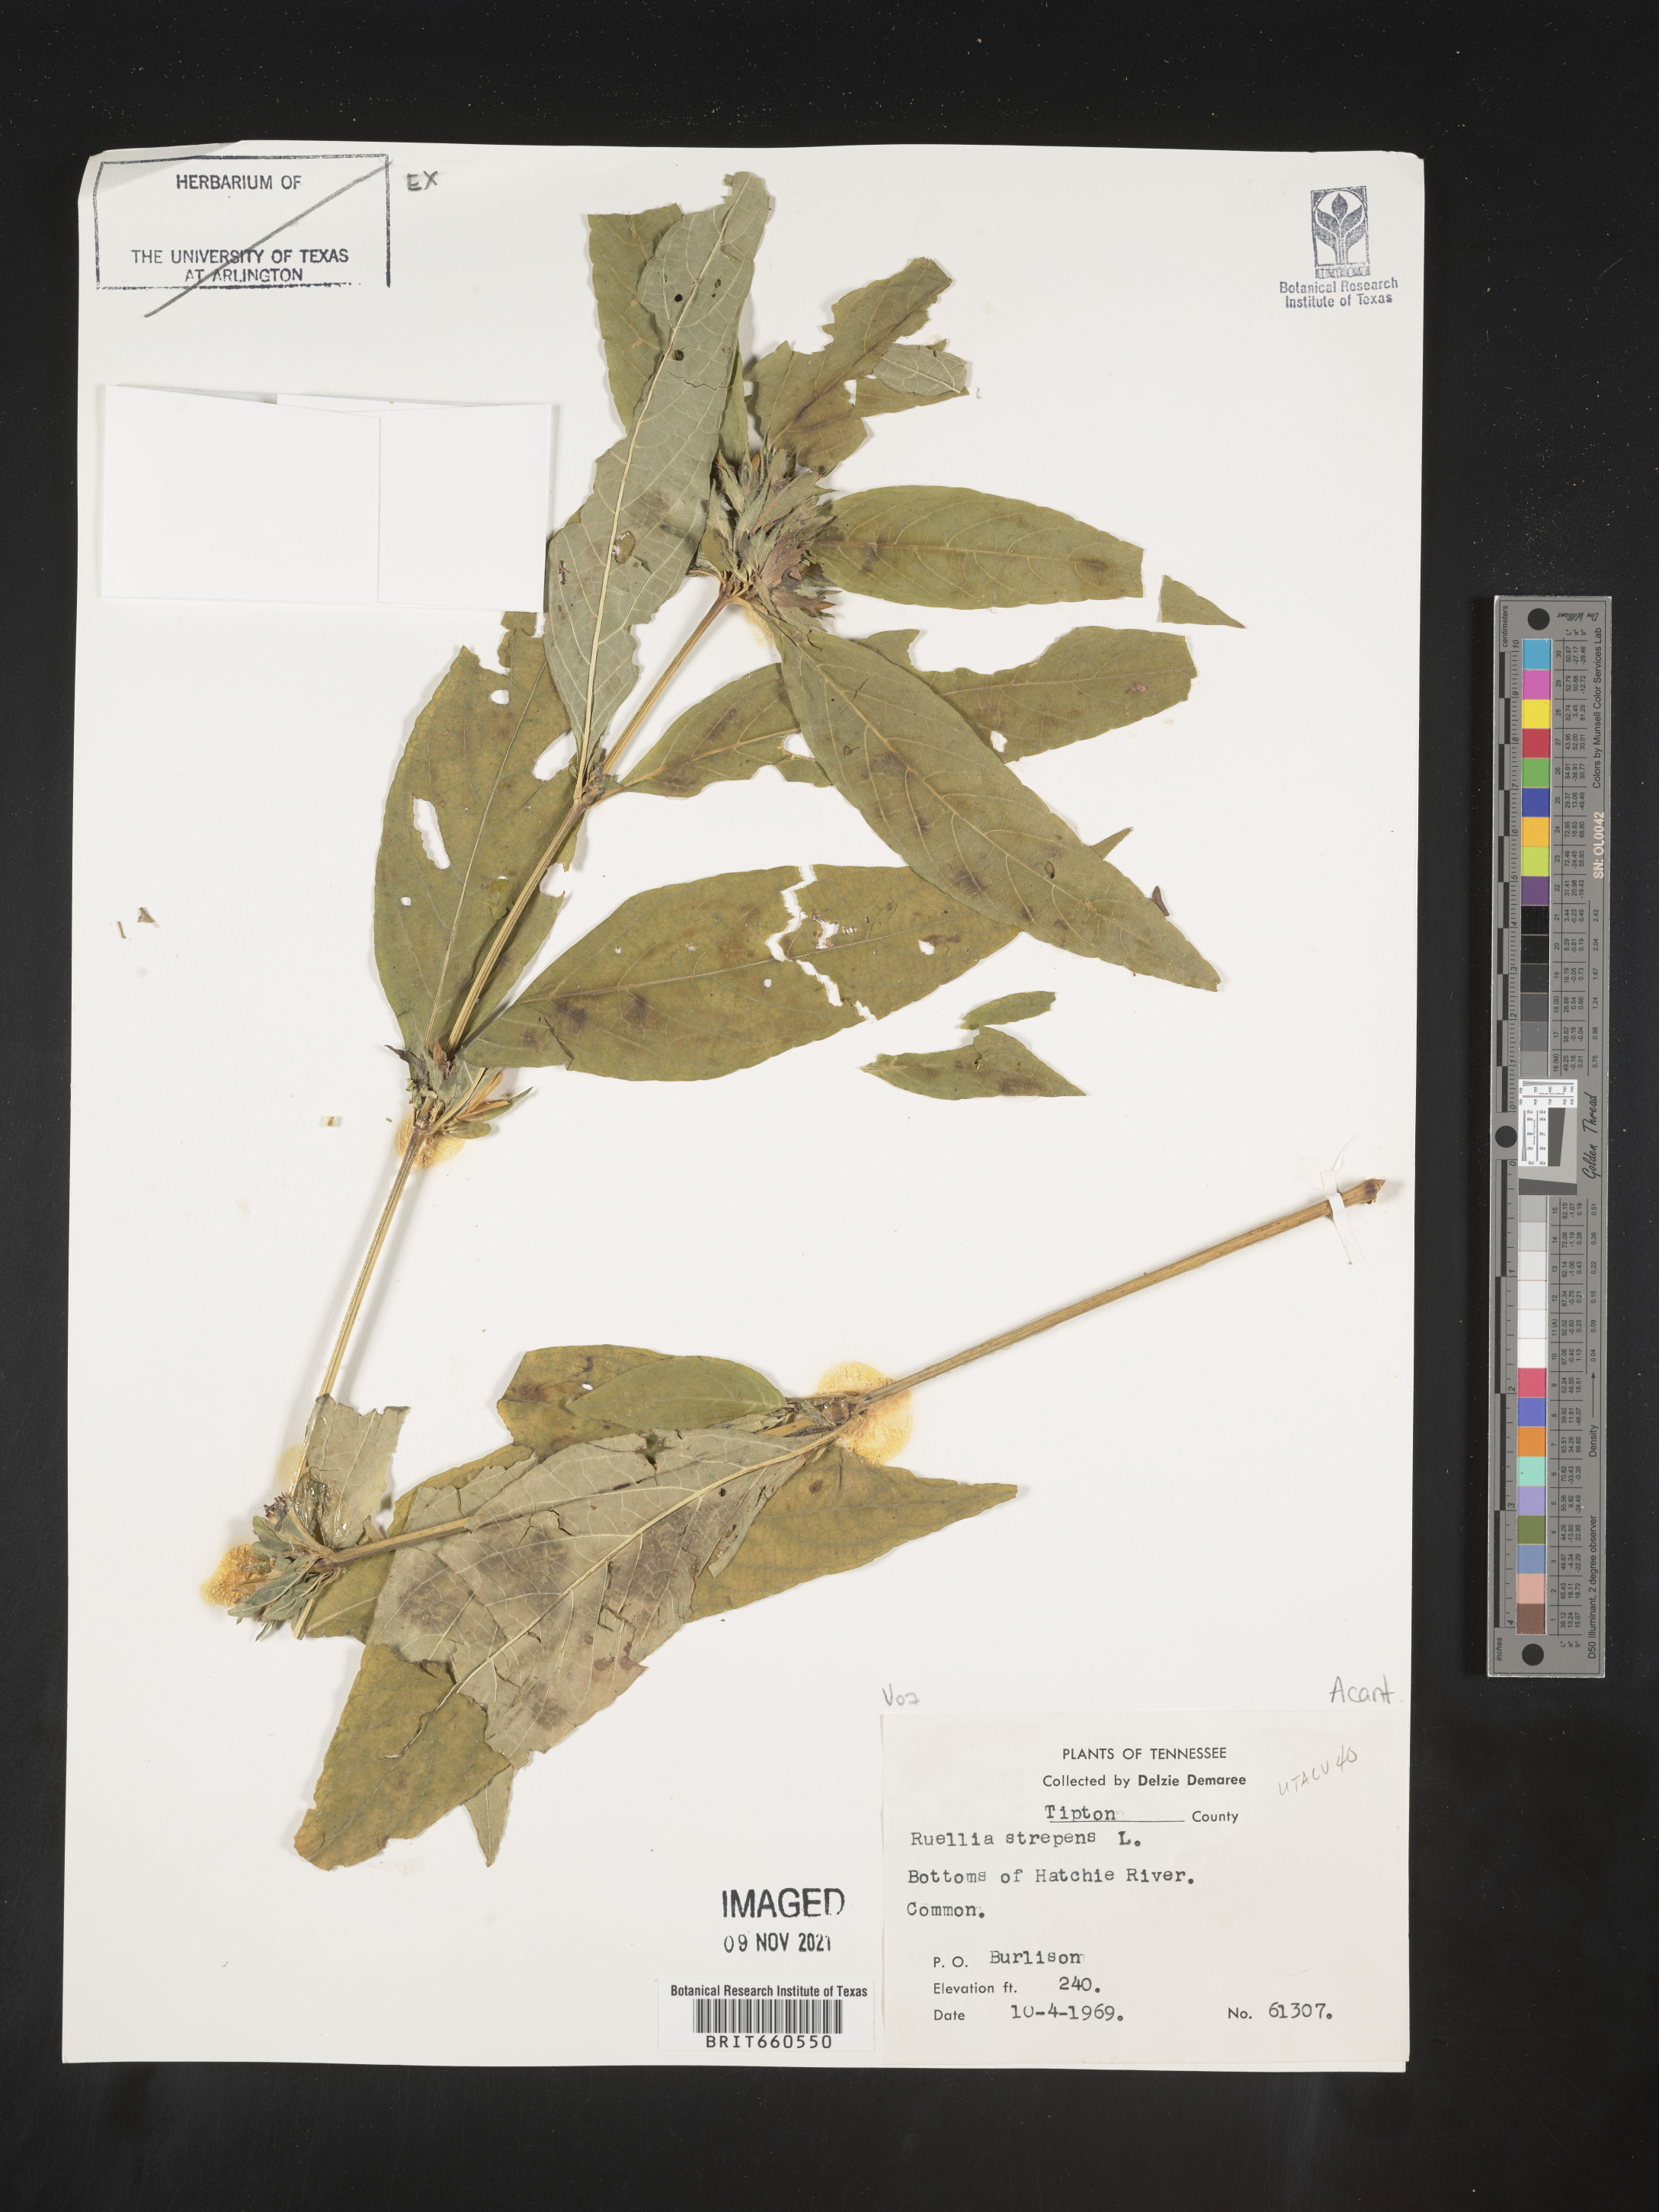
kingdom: Plantae
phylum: Tracheophyta
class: Magnoliopsida
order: Lamiales
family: Acanthaceae
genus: Ruellia
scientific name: Ruellia strepens
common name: Limestone wild petunia
